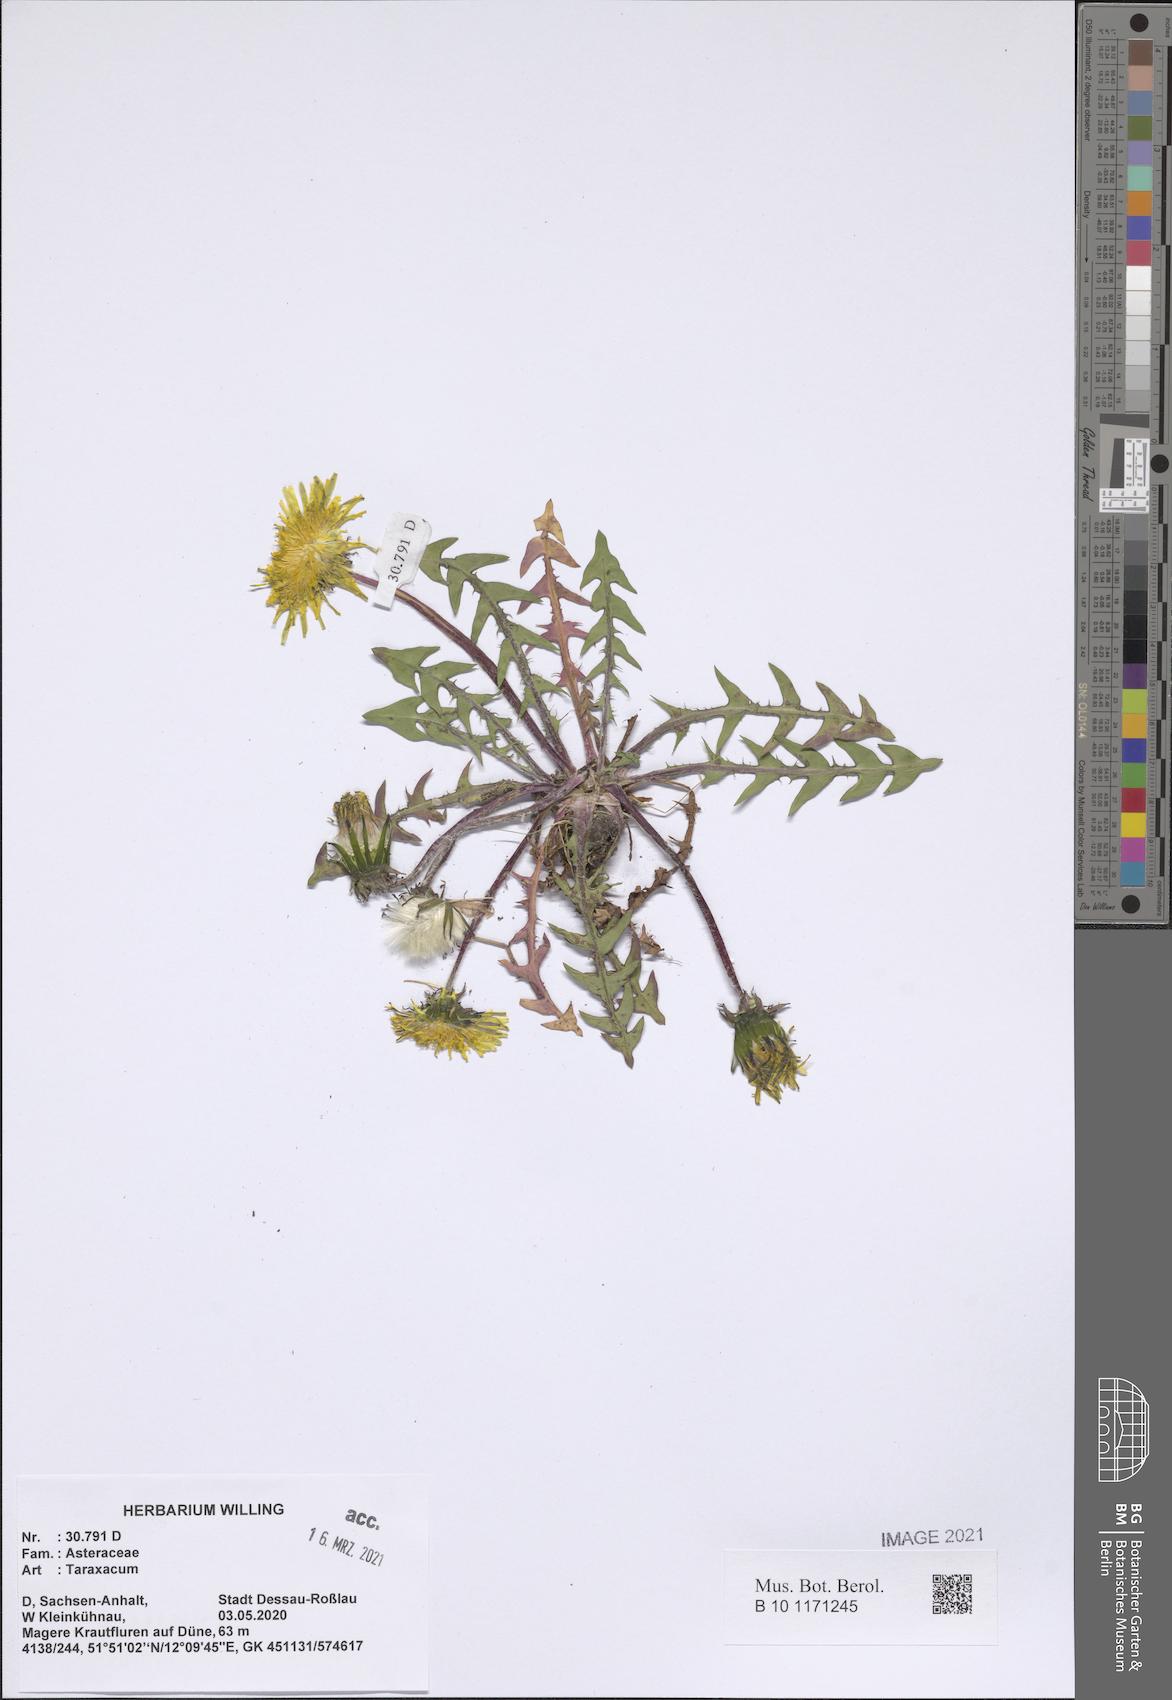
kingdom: Plantae
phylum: Tracheophyta
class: Magnoliopsida
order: Asterales
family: Asteraceae
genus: Taraxacum
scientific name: Taraxacum
